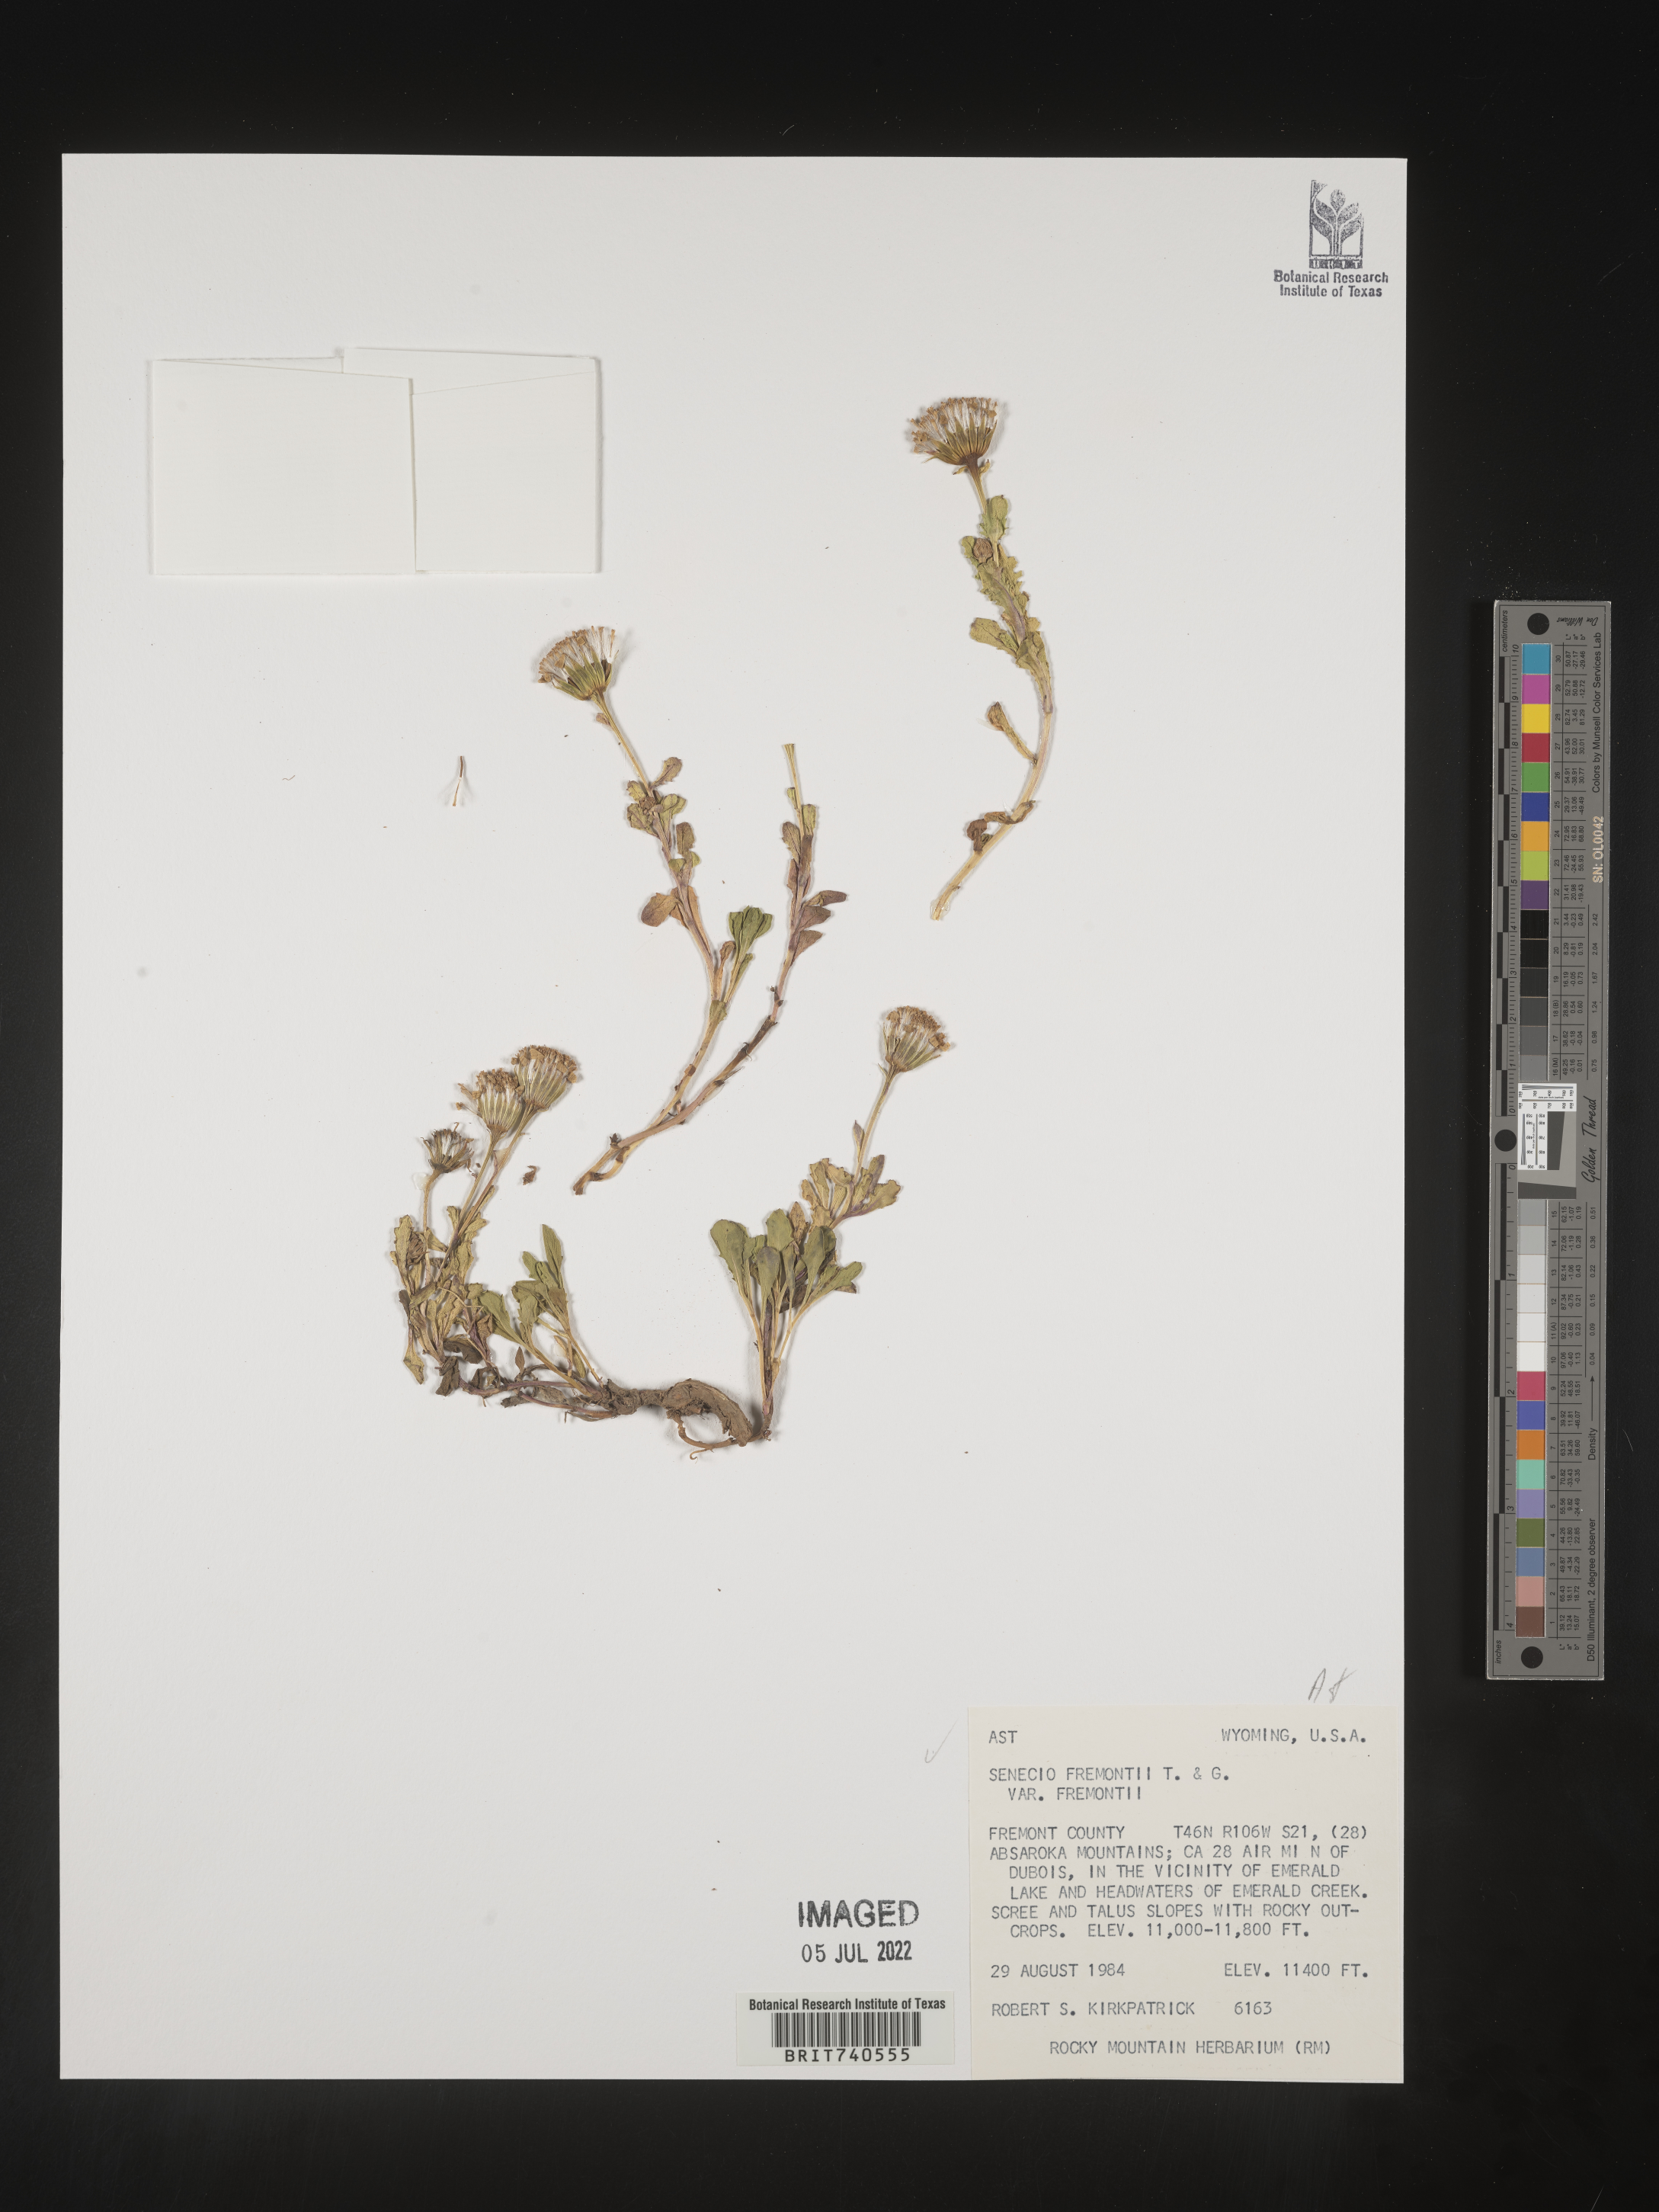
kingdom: Plantae
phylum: Tracheophyta
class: Magnoliopsida
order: Asterales
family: Asteraceae
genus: Senecio
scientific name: Senecio fremontii
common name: Fremont's groundsel
